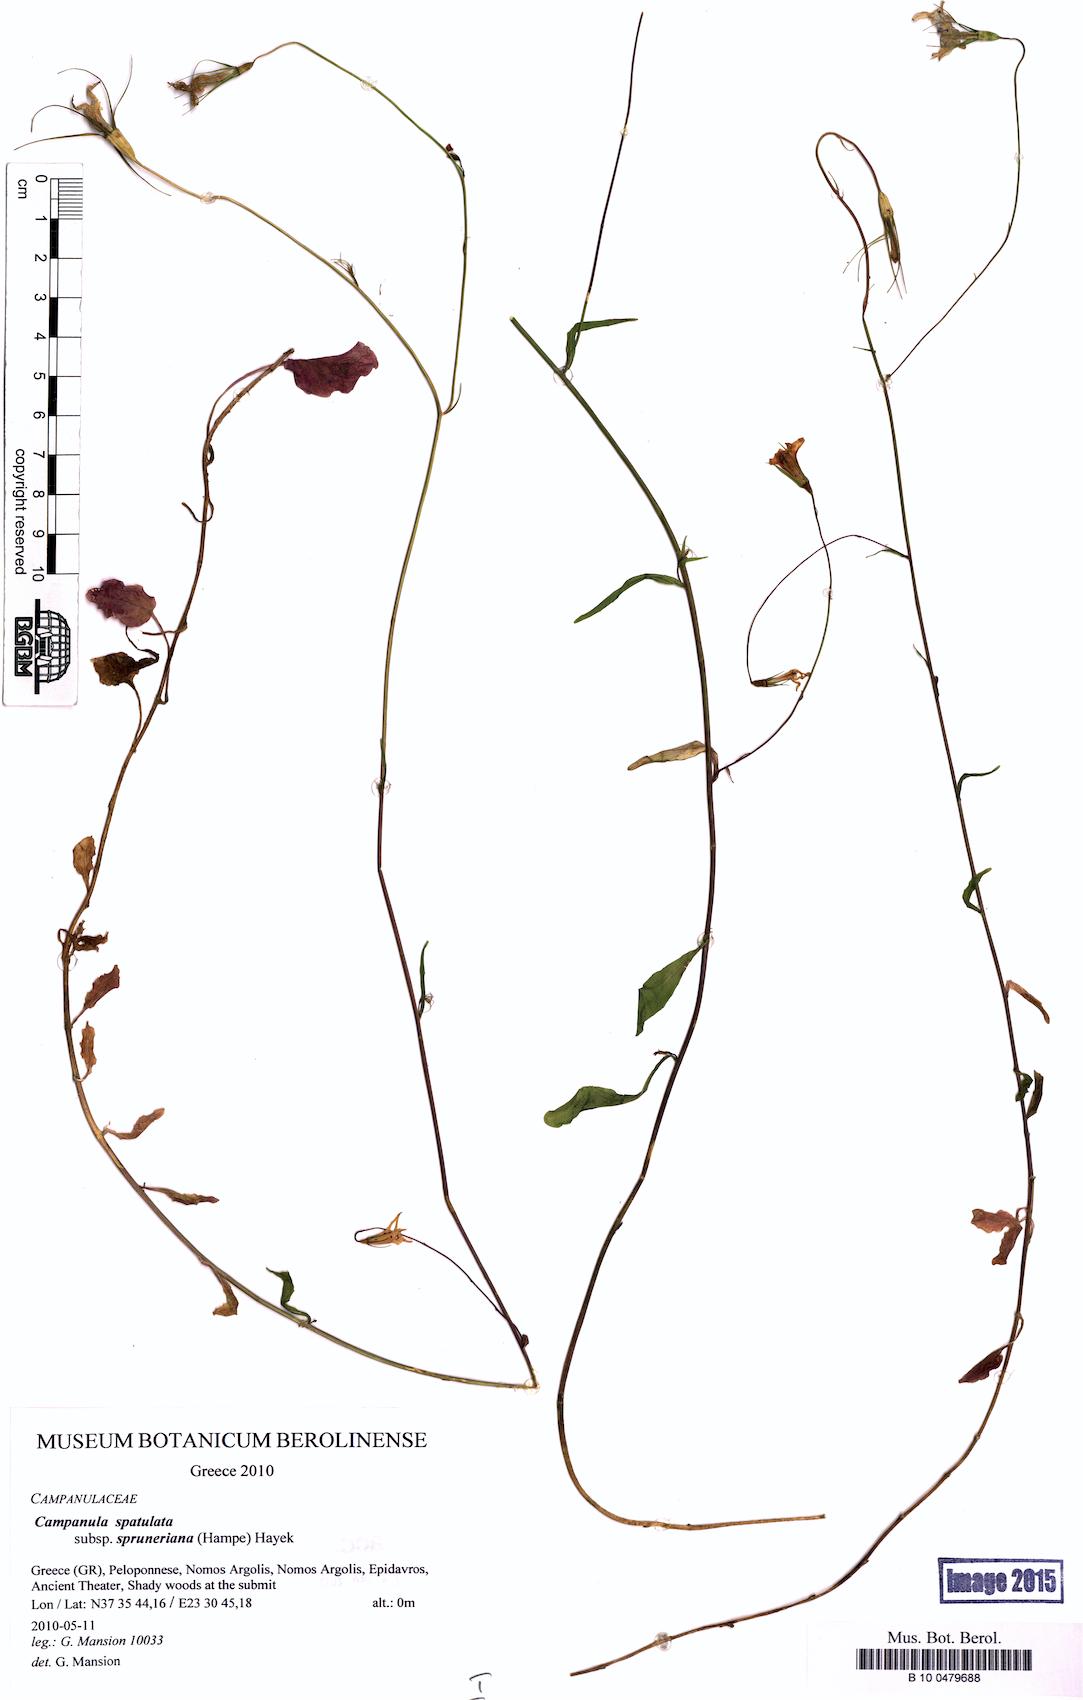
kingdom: Plantae
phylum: Tracheophyta
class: Magnoliopsida
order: Asterales
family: Campanulaceae
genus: Campanula
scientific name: Campanula spatulata
